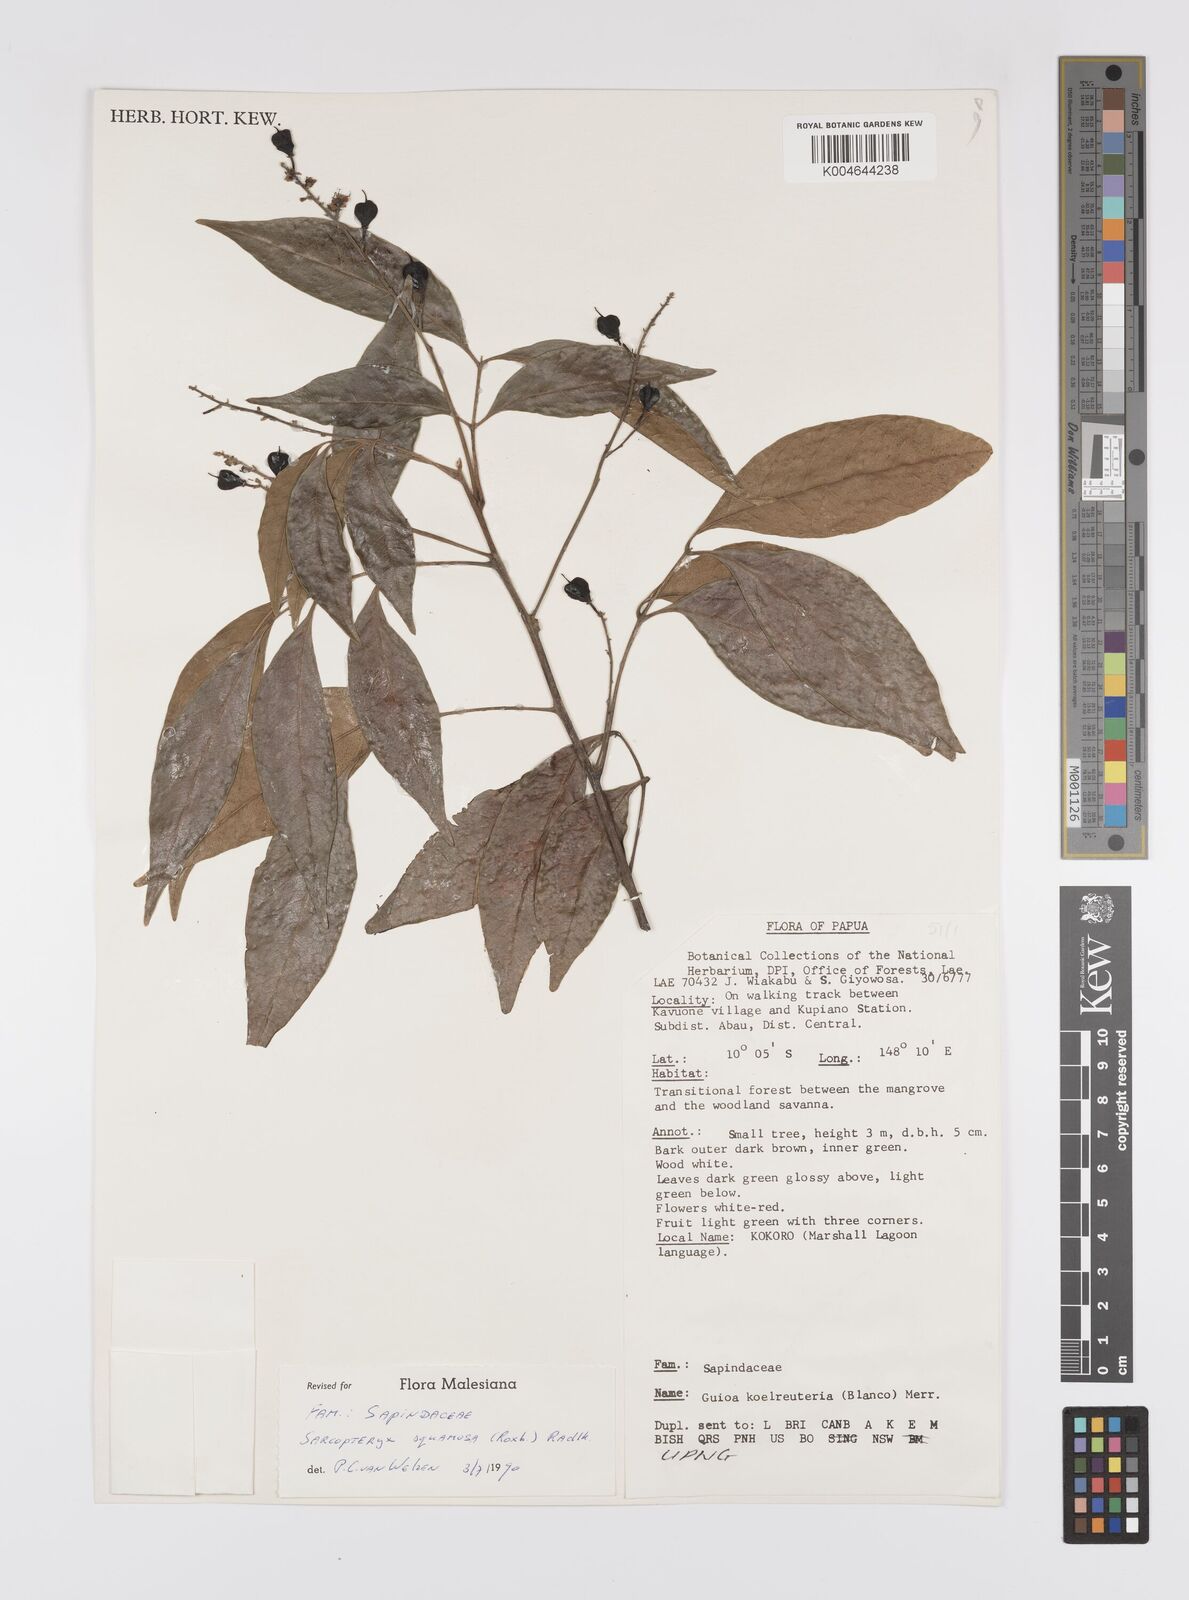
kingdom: Plantae
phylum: Tracheophyta
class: Magnoliopsida
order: Sapindales
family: Sapindaceae
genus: Sarcopteryx
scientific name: Sarcopteryx squamosa
